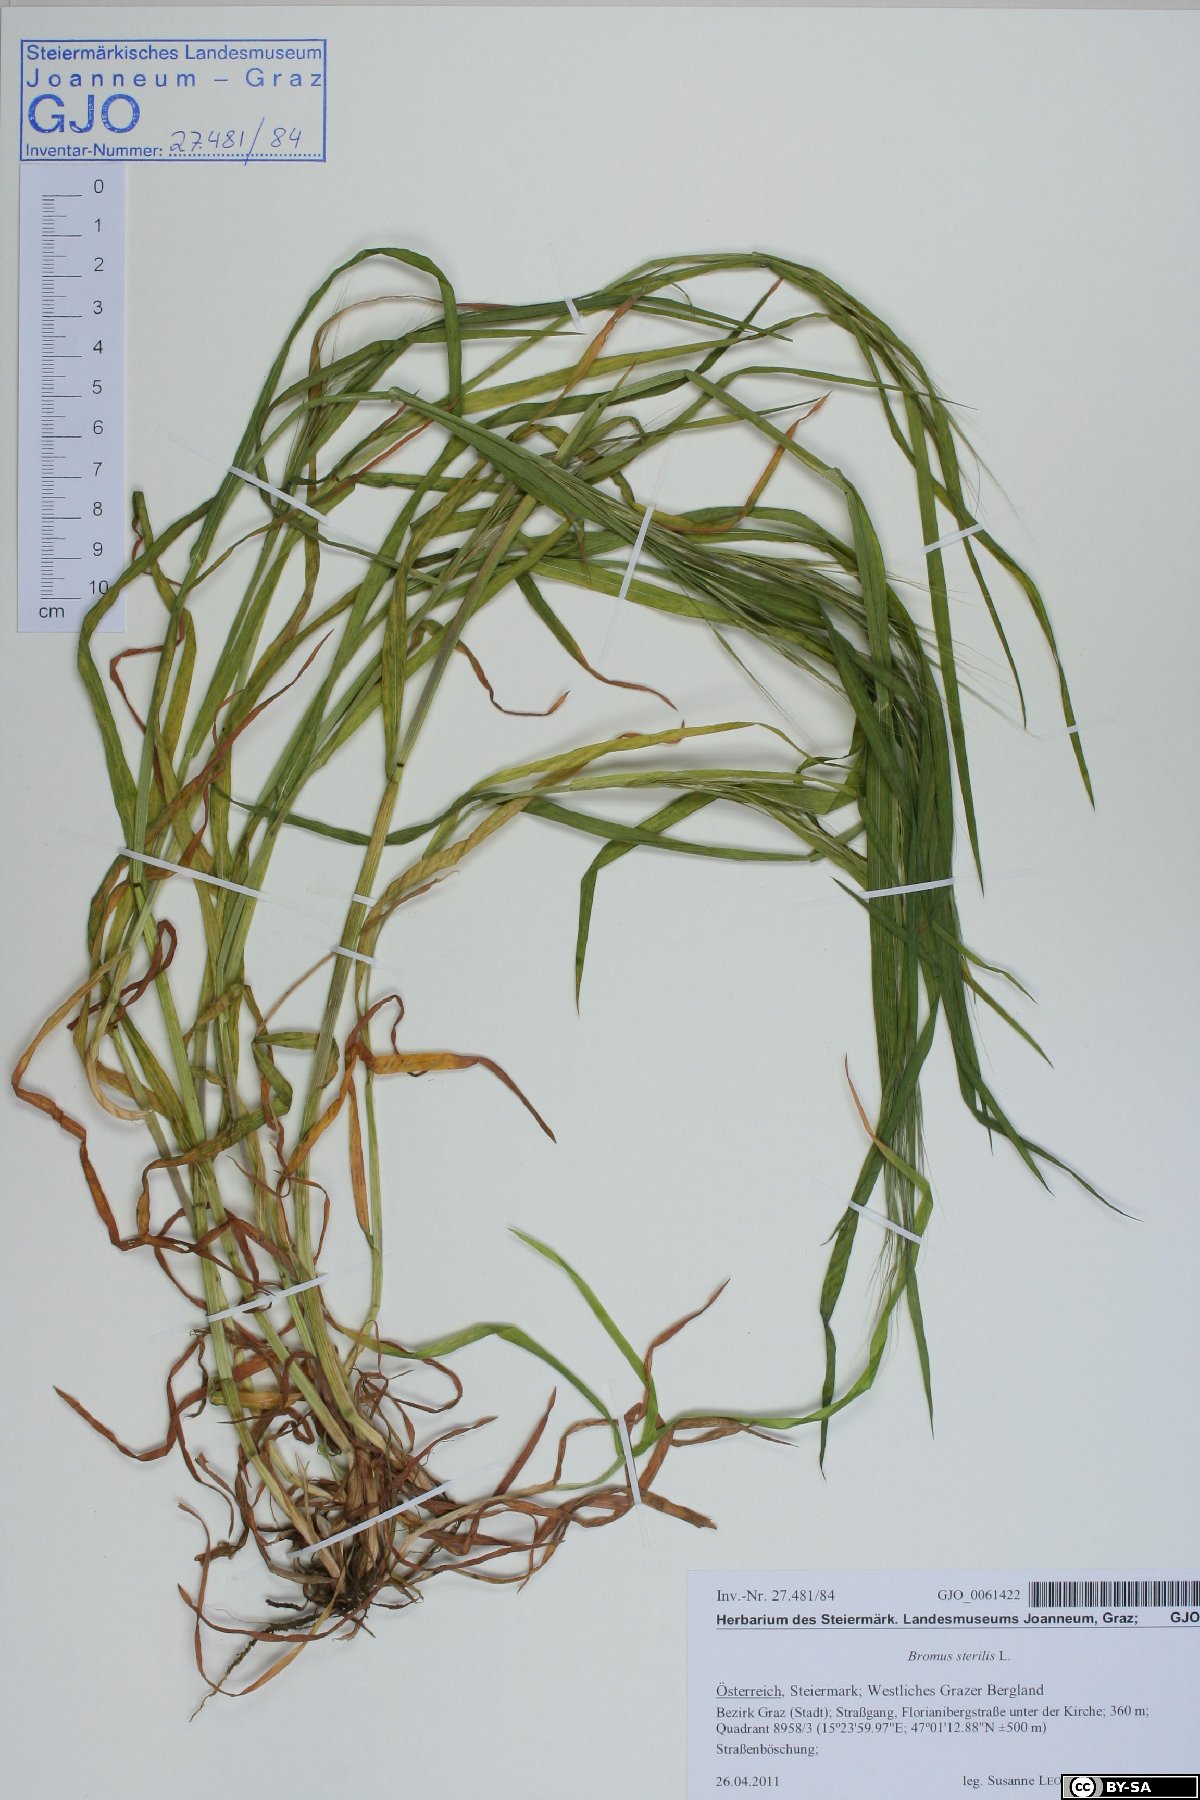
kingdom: Plantae
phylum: Tracheophyta
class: Liliopsida
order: Poales
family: Poaceae
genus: Bromus
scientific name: Bromus sterilis
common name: Poverty brome
